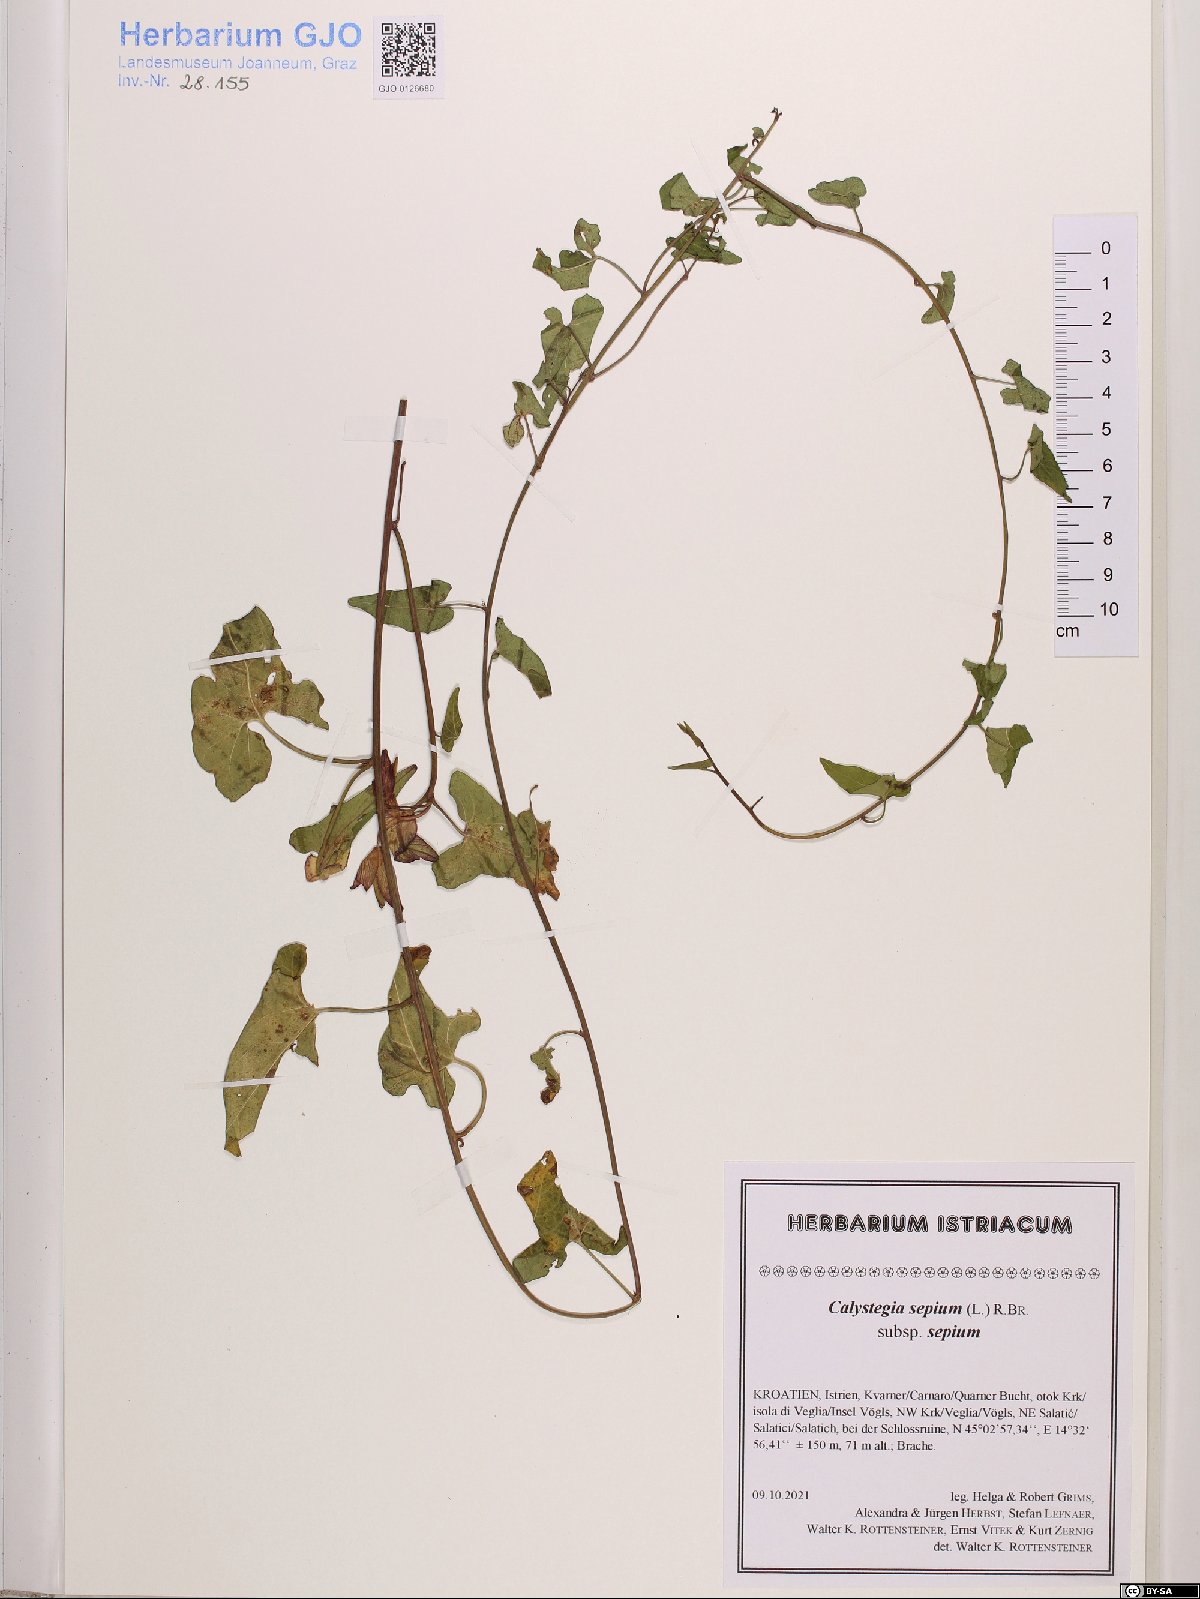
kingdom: Plantae
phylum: Tracheophyta
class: Magnoliopsida
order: Solanales
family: Convolvulaceae
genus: Calystegia
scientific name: Calystegia sepium
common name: Hedge bindweed
